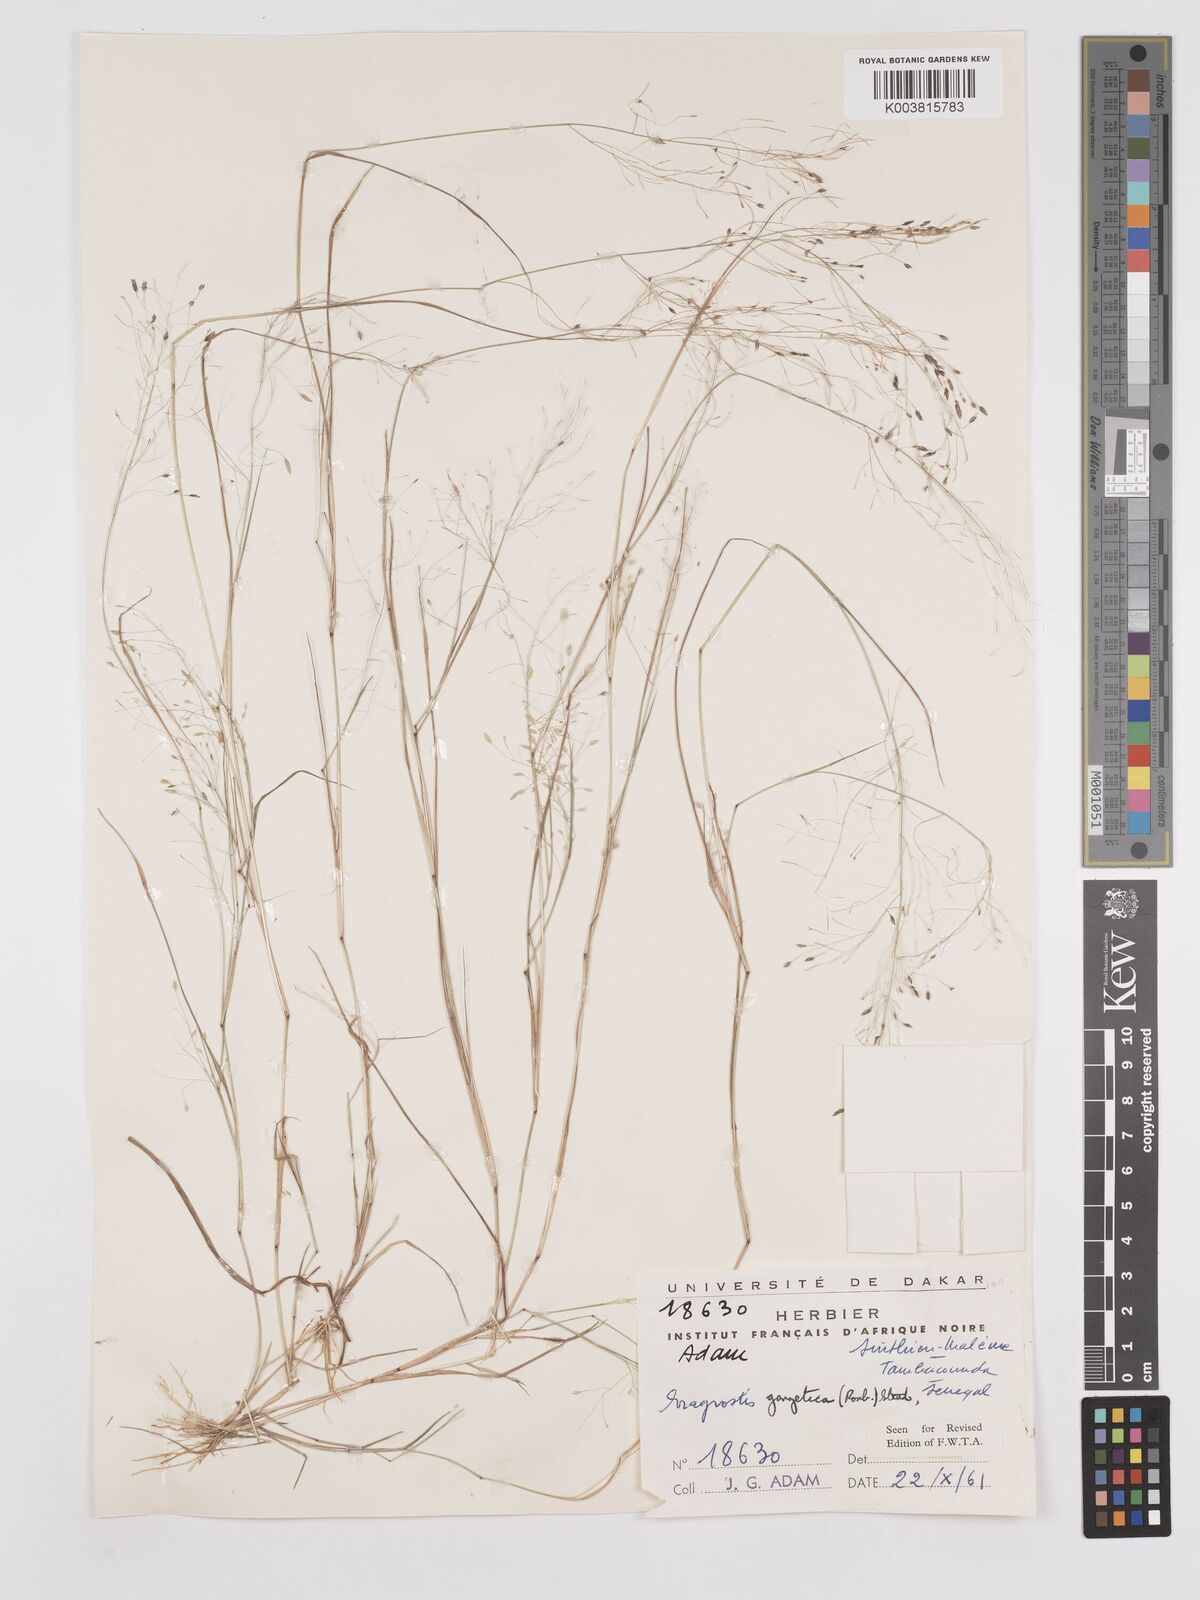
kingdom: Plantae
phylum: Tracheophyta
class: Liliopsida
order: Poales
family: Poaceae
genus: Eragrostis
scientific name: Eragrostis gangetica
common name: Slimflower lovegrass
